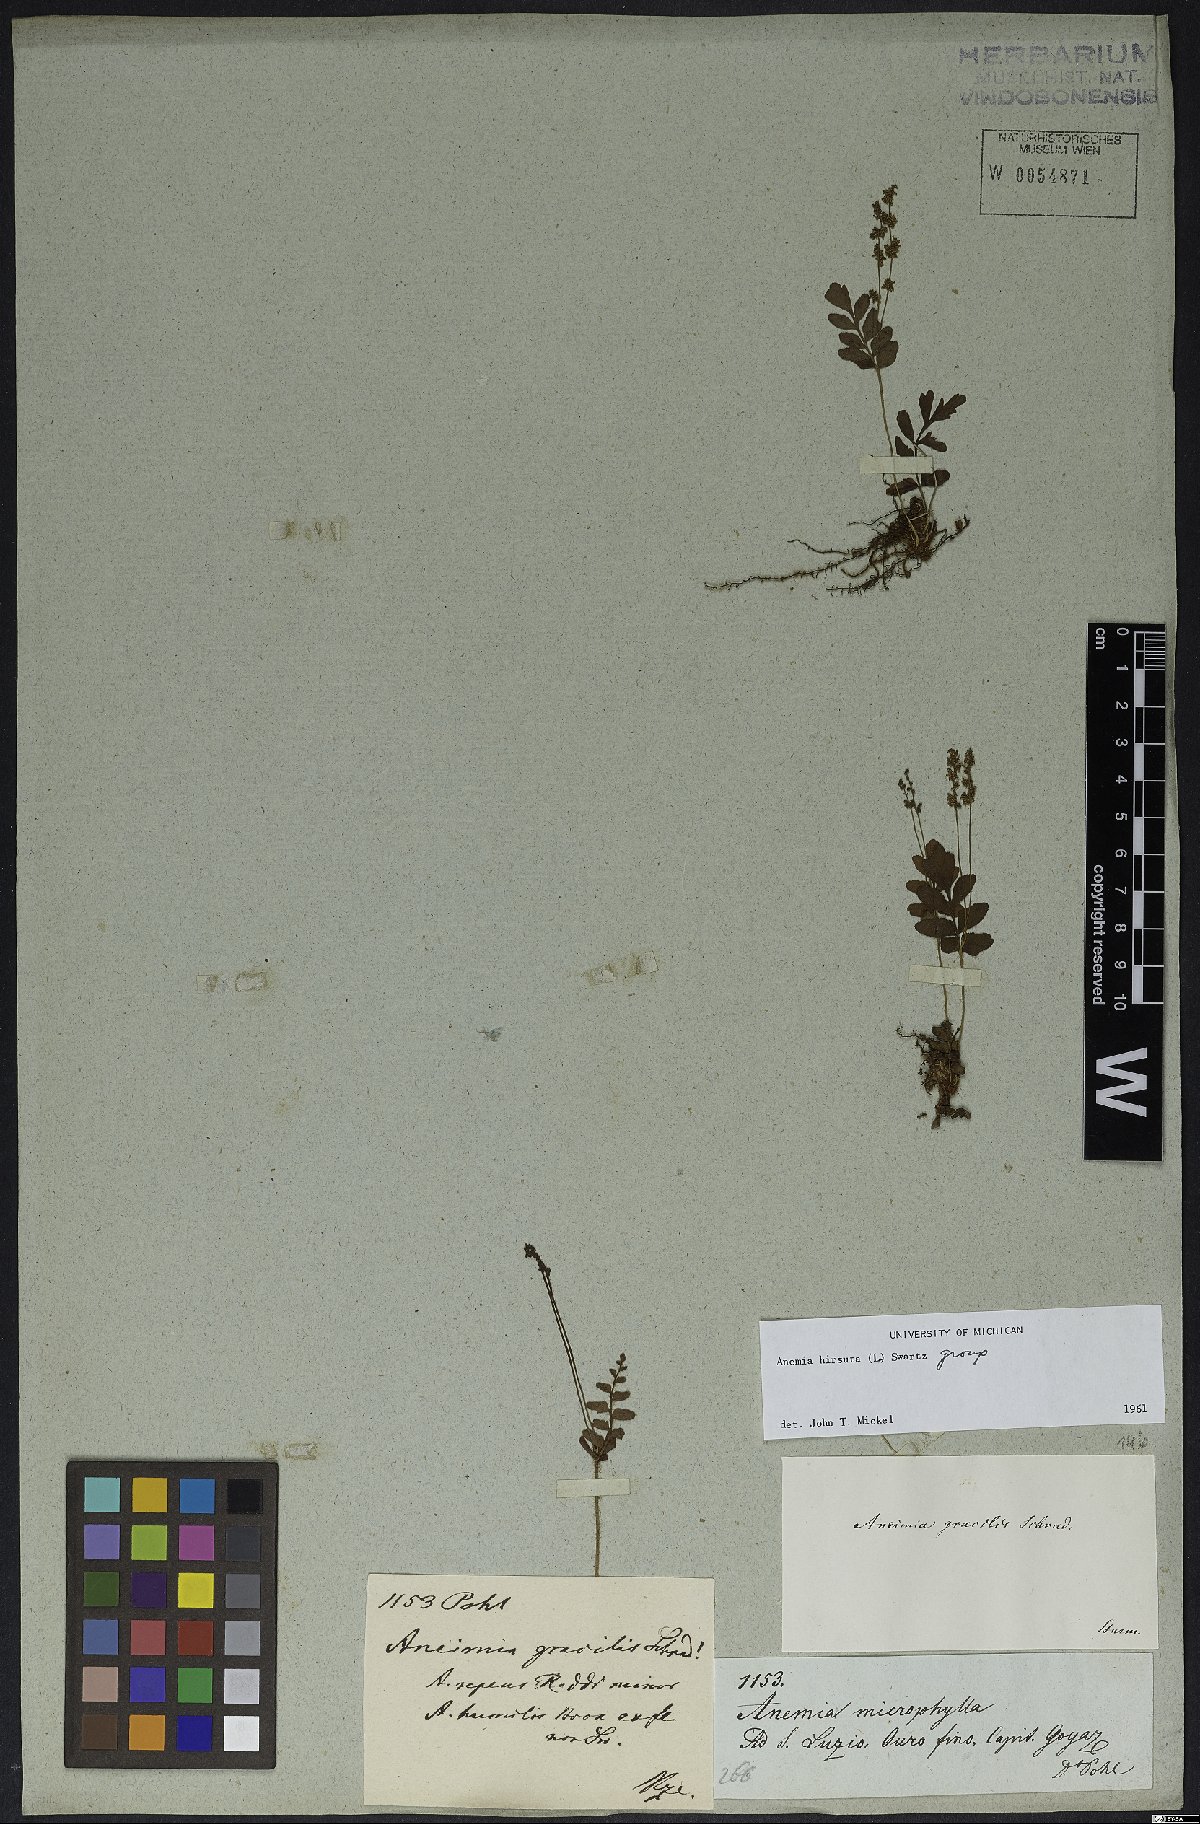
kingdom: Plantae
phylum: Tracheophyta
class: Polypodiopsida
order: Schizaeales
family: Anemiaceae
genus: Anemia
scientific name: Anemia hirsuta
